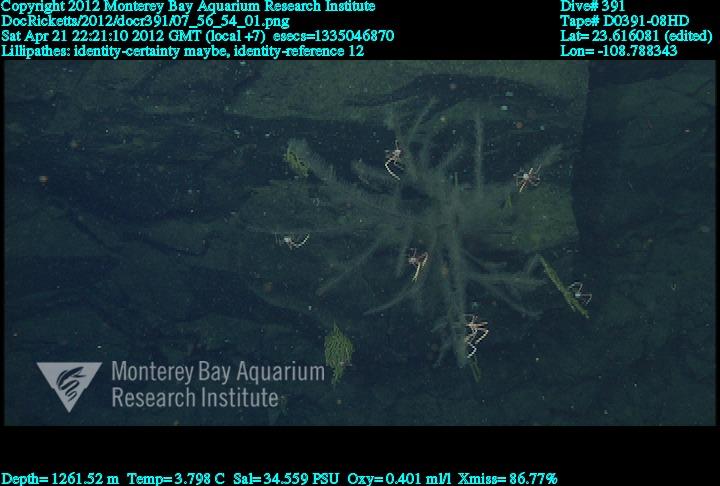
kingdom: Animalia
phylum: Cnidaria
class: Anthozoa
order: Antipatharia
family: Schizopathidae
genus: Lillipathes
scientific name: Lillipathes
